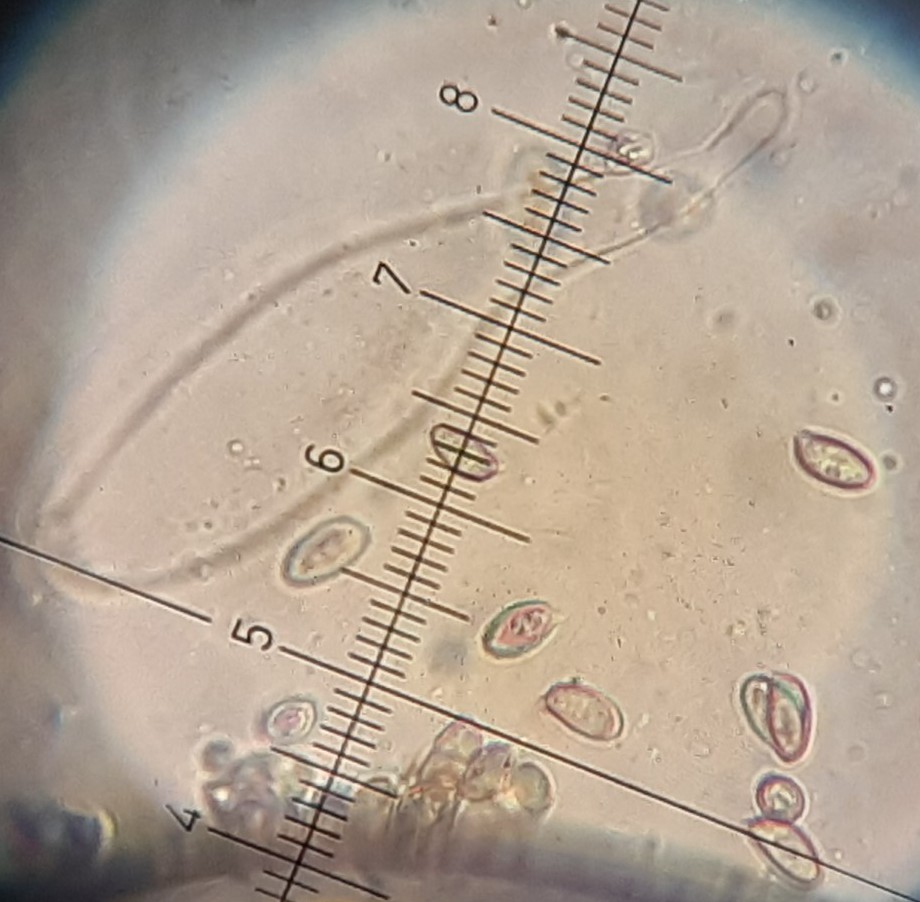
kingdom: Fungi
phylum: Basidiomycota
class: Agaricomycetes
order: Agaricales
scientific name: Agaricales
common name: champignonordenen
